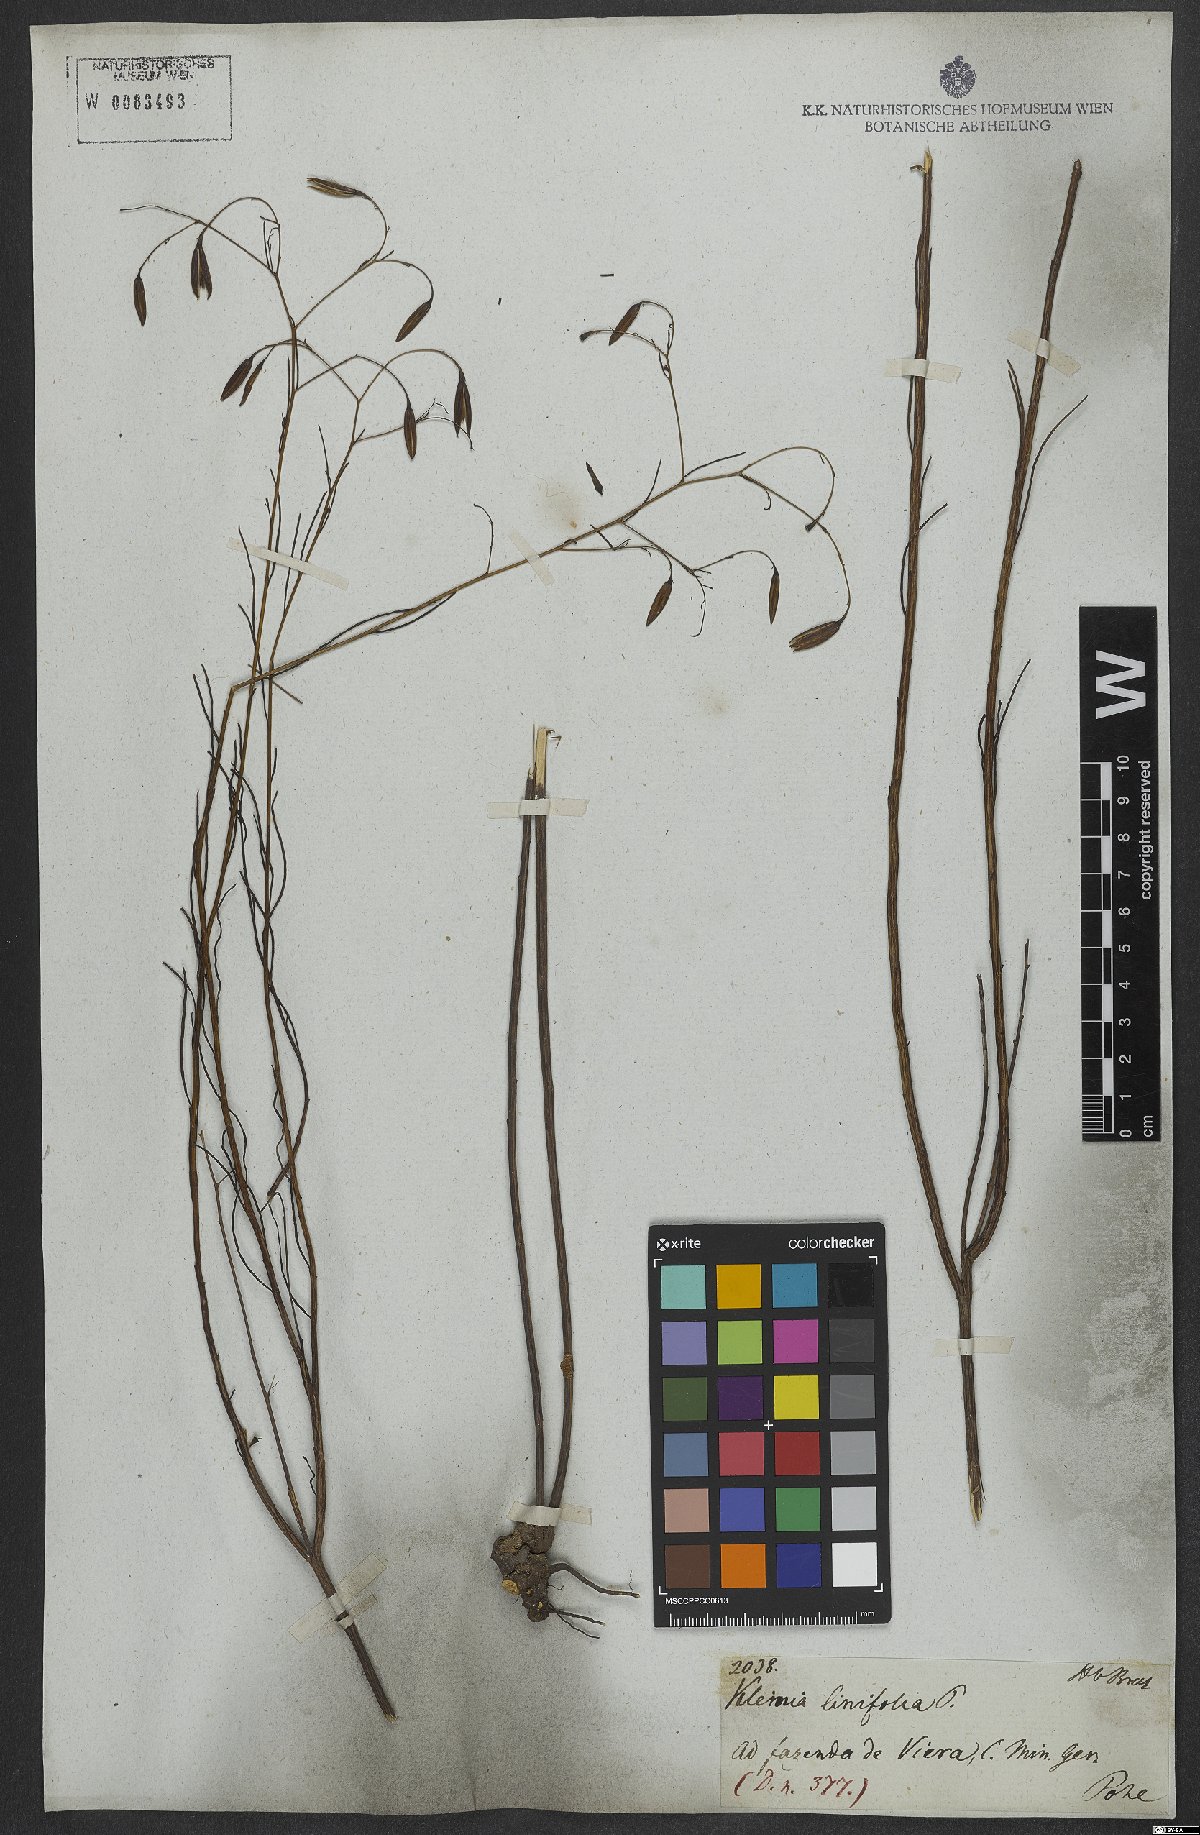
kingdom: Plantae
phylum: Tracheophyta
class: Magnoliopsida
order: Asterales
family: Asteraceae
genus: Porophyllum
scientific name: Porophyllum linifolium
